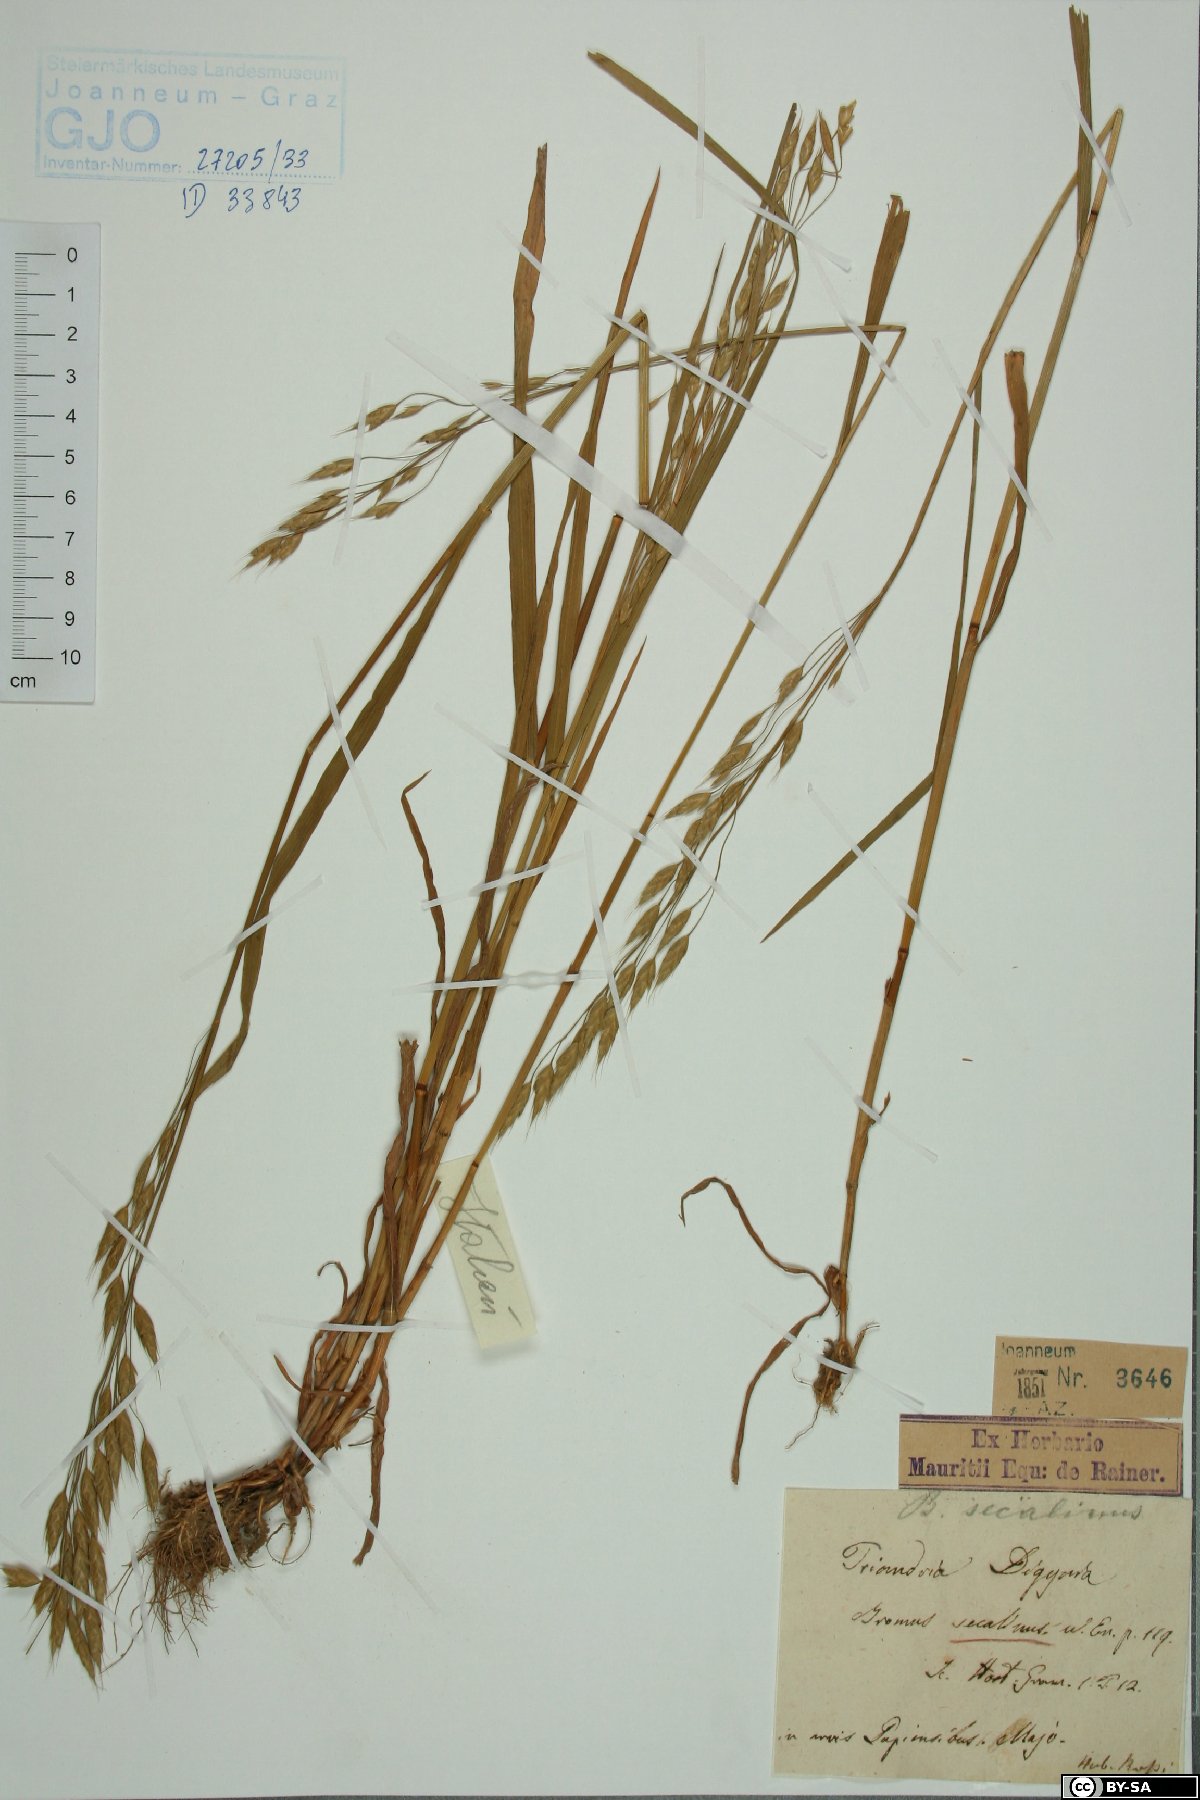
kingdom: Plantae
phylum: Tracheophyta
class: Liliopsida
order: Poales
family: Poaceae
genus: Bromus
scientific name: Bromus inermis
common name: Smooth brome
